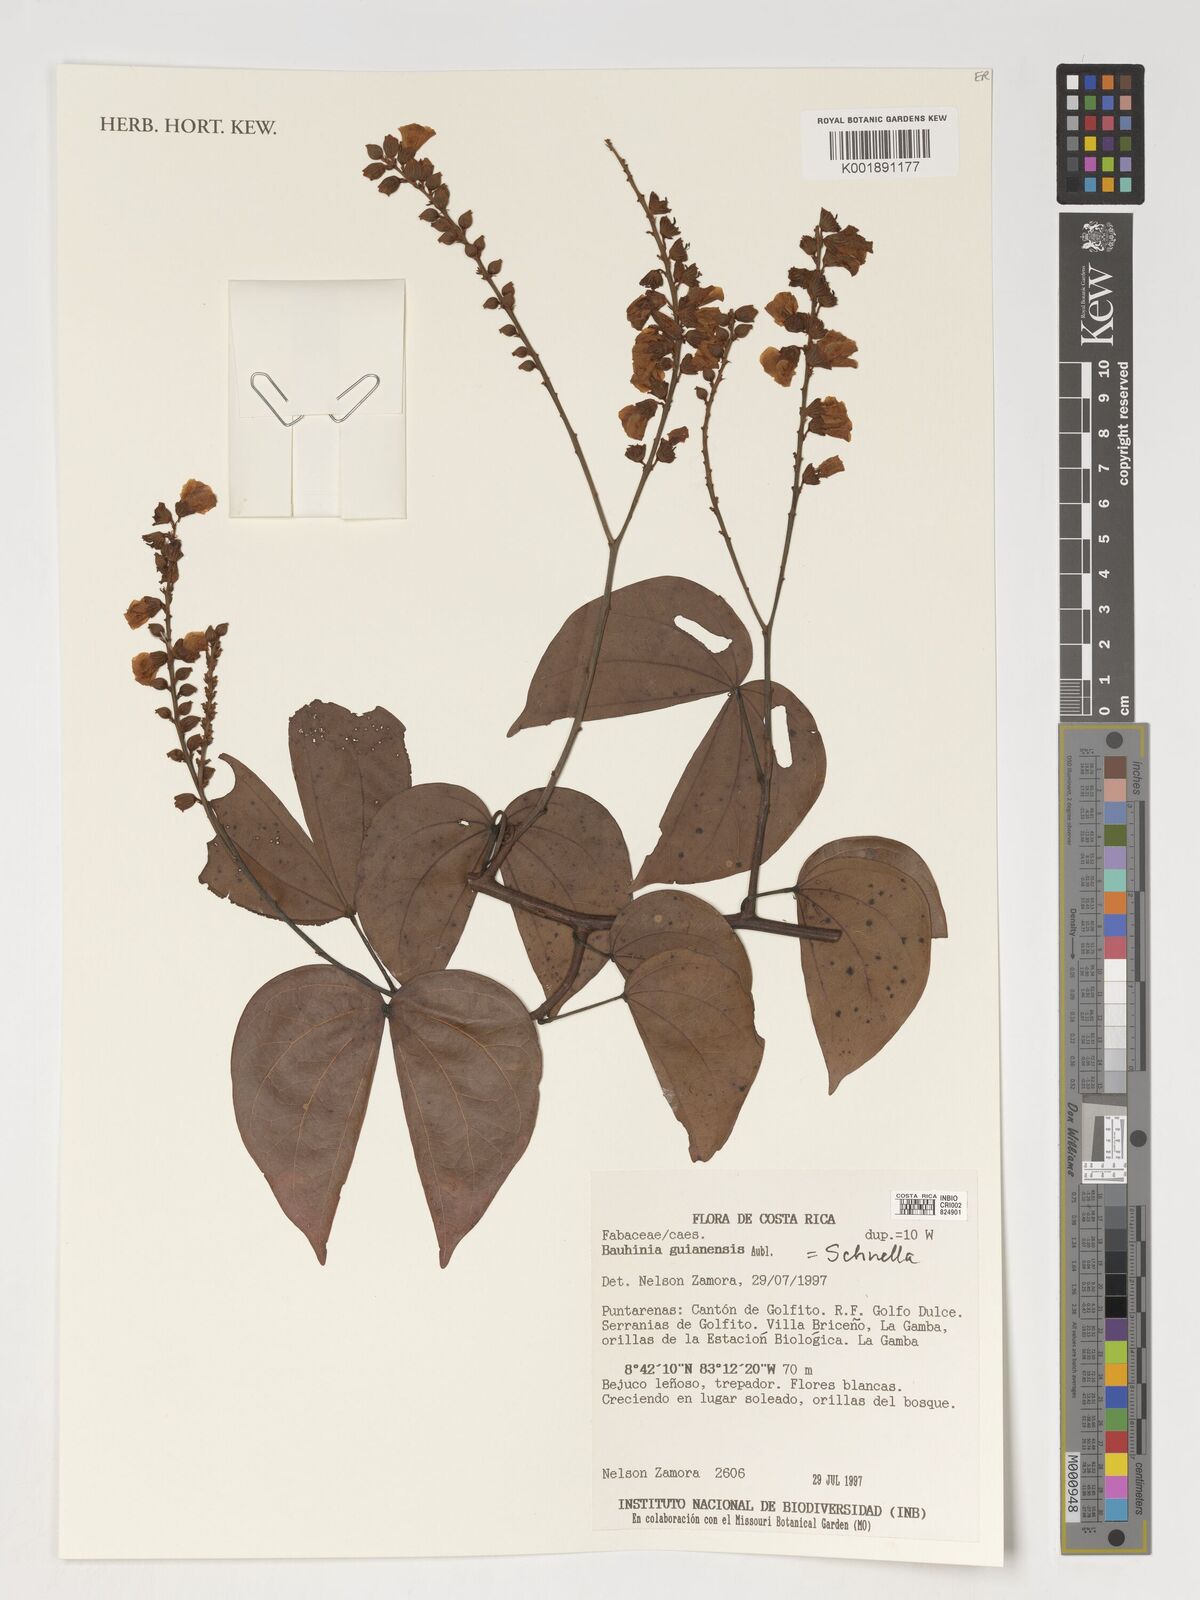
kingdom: Plantae
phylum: Tracheophyta
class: Magnoliopsida
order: Fabales
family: Fabaceae
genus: Schnella
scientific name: Schnella guianensis
